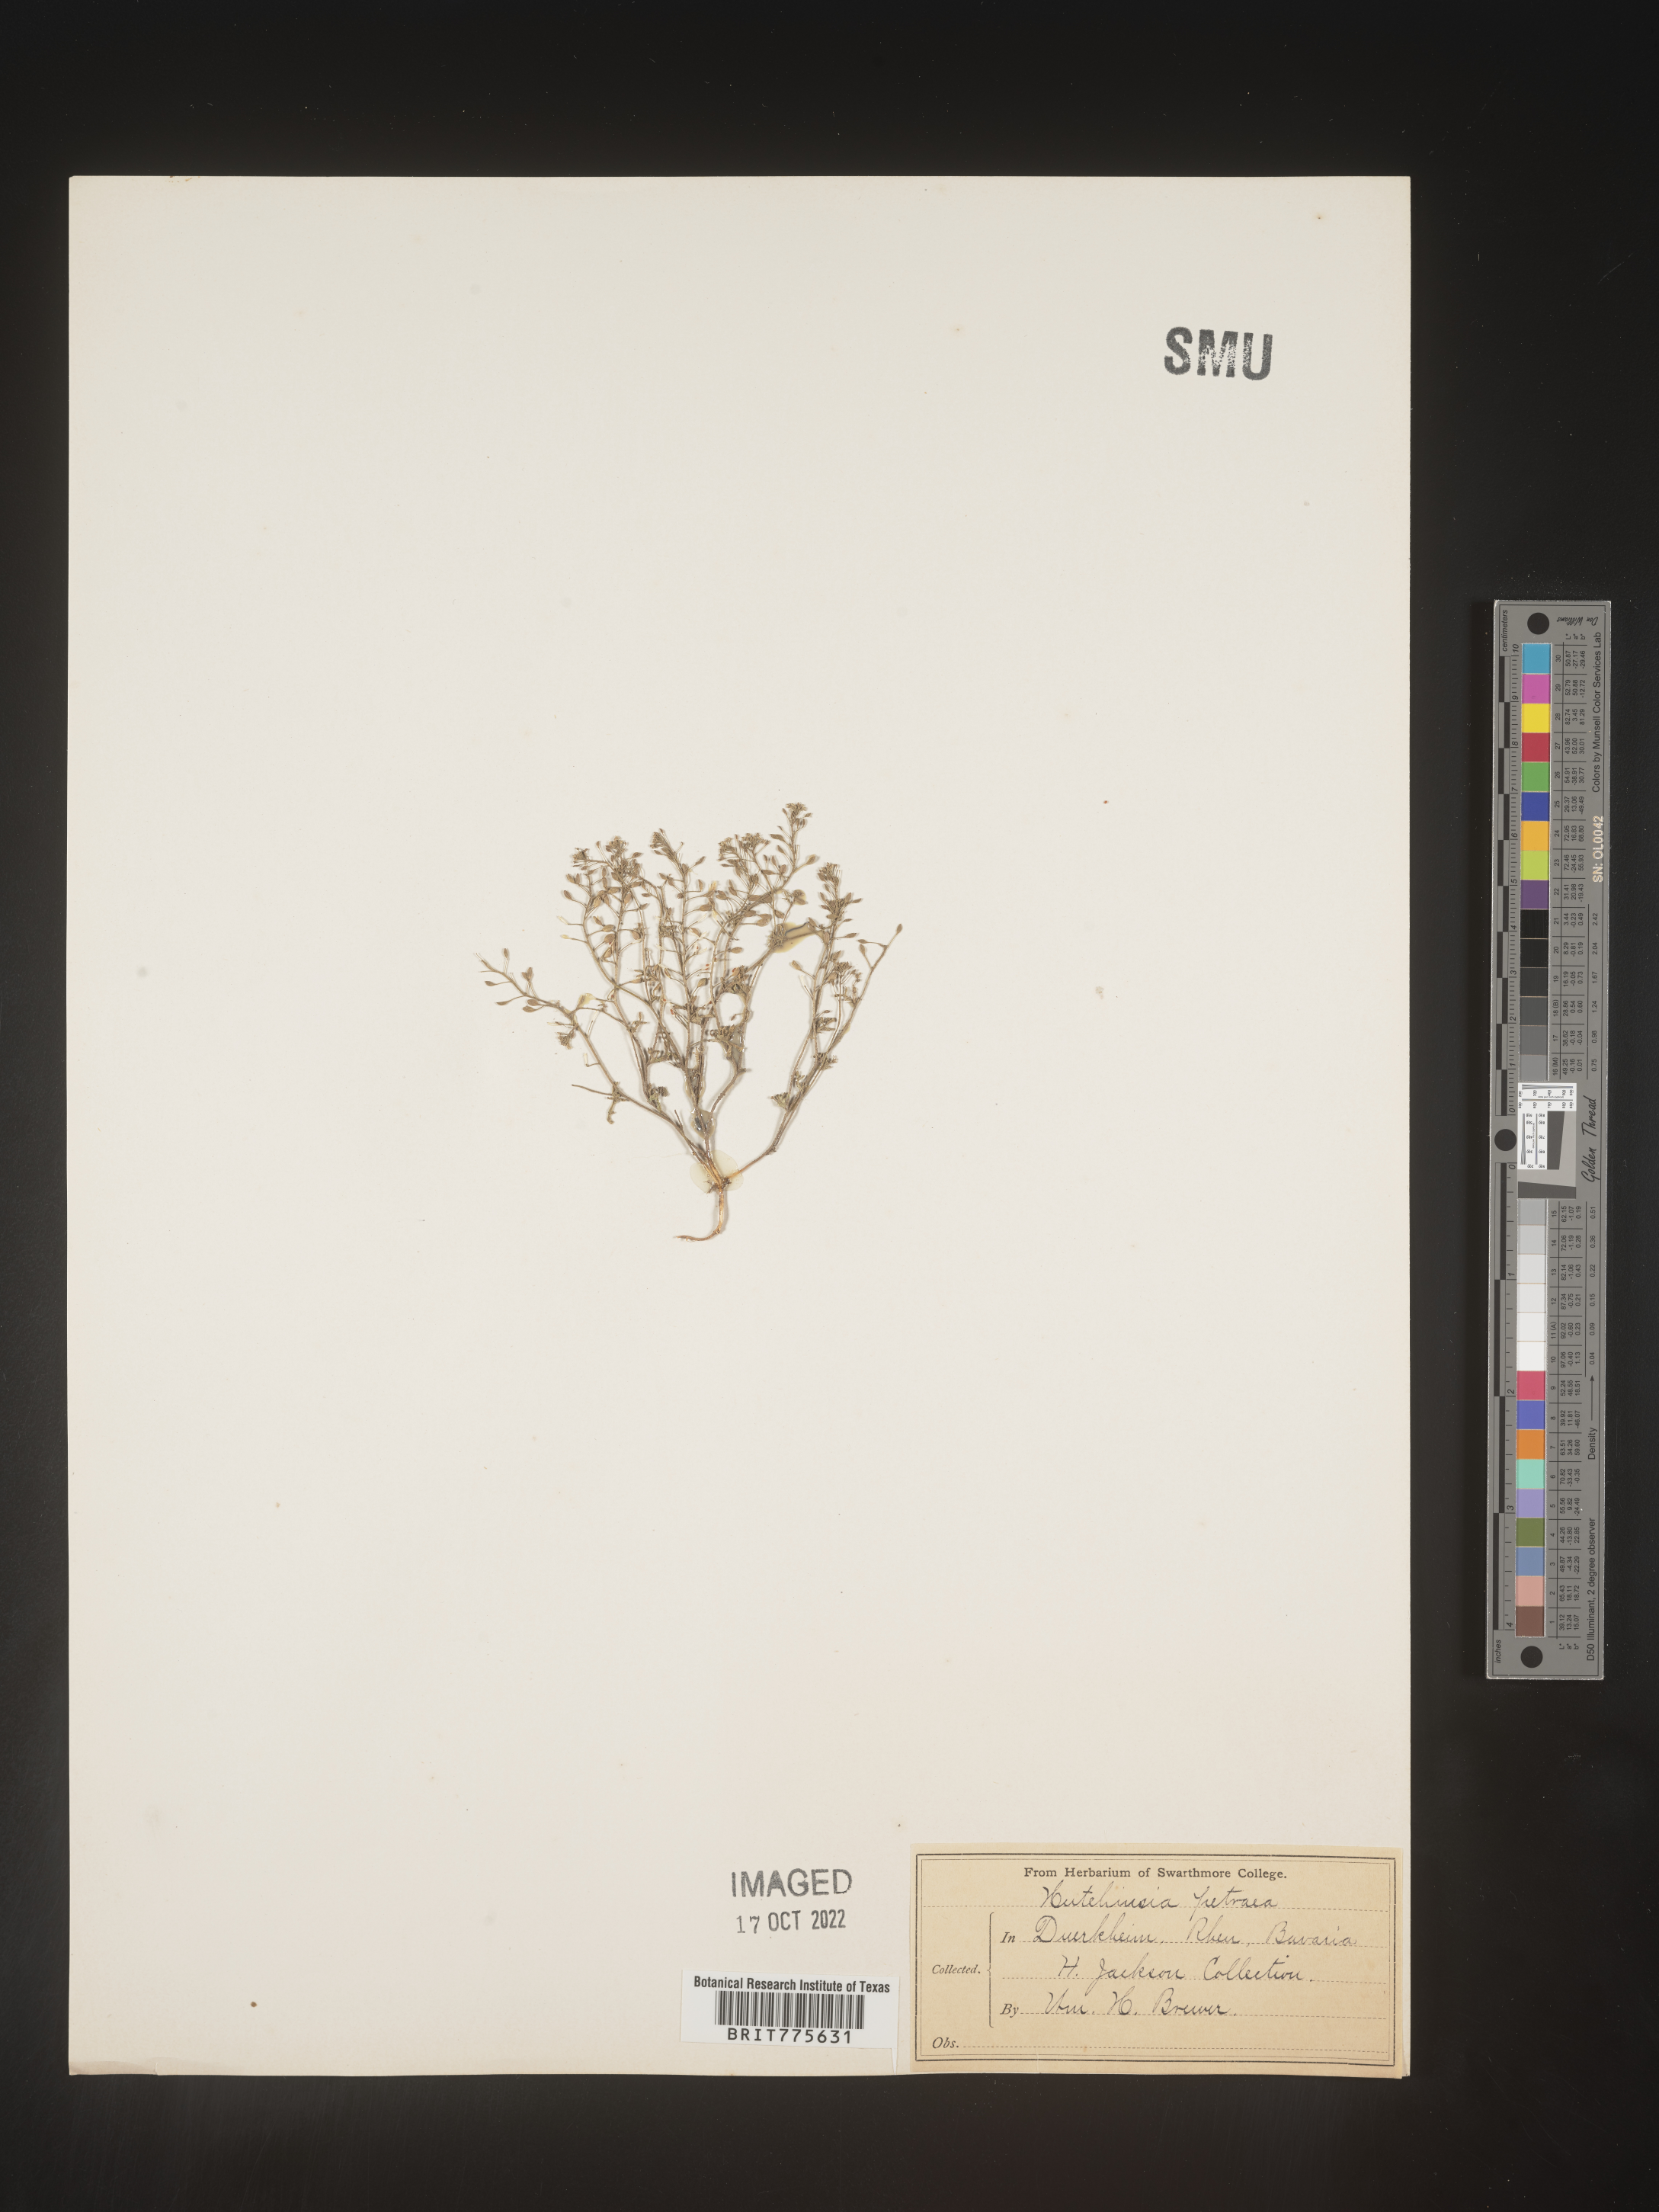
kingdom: Plantae
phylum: Rhodophyta
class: Florideophyceae
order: Ceramiales
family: Rhodomelaceae
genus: Hutchinsia
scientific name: Hutchinsia
